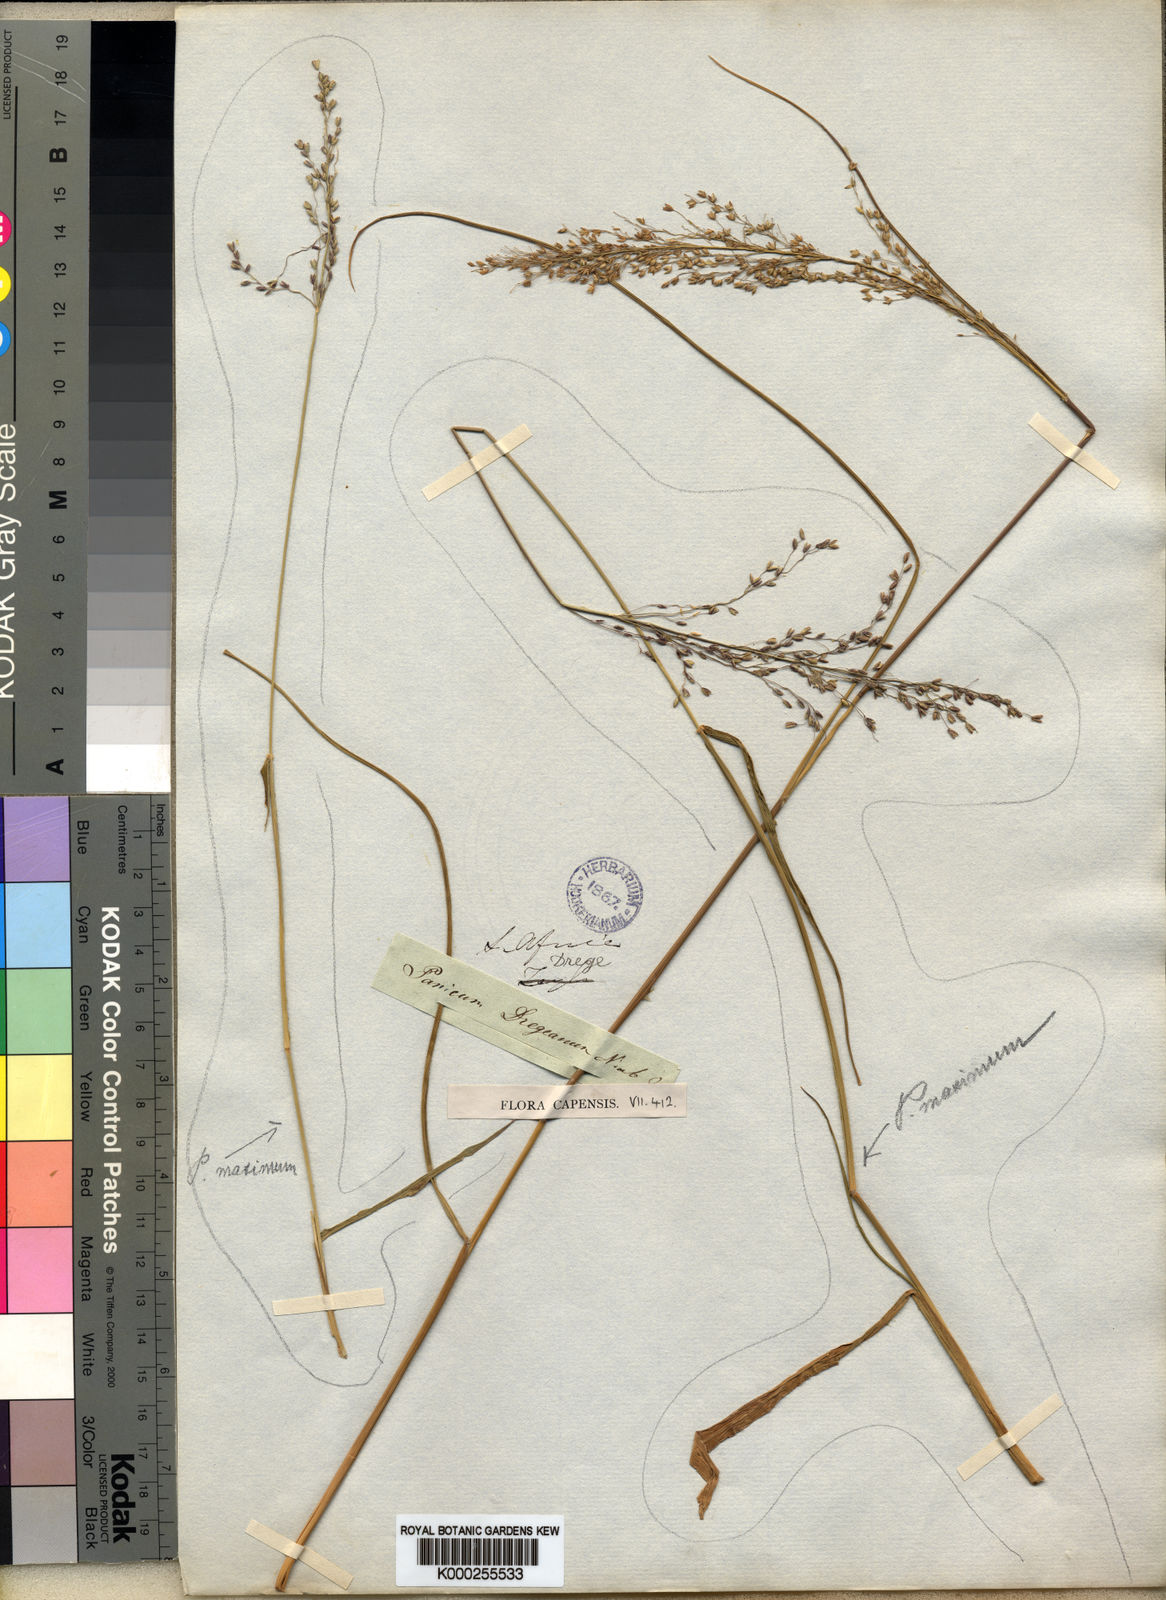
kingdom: Plantae
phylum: Tracheophyta
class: Liliopsida
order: Poales
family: Poaceae
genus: Panicum
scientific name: Panicum dregeanum
